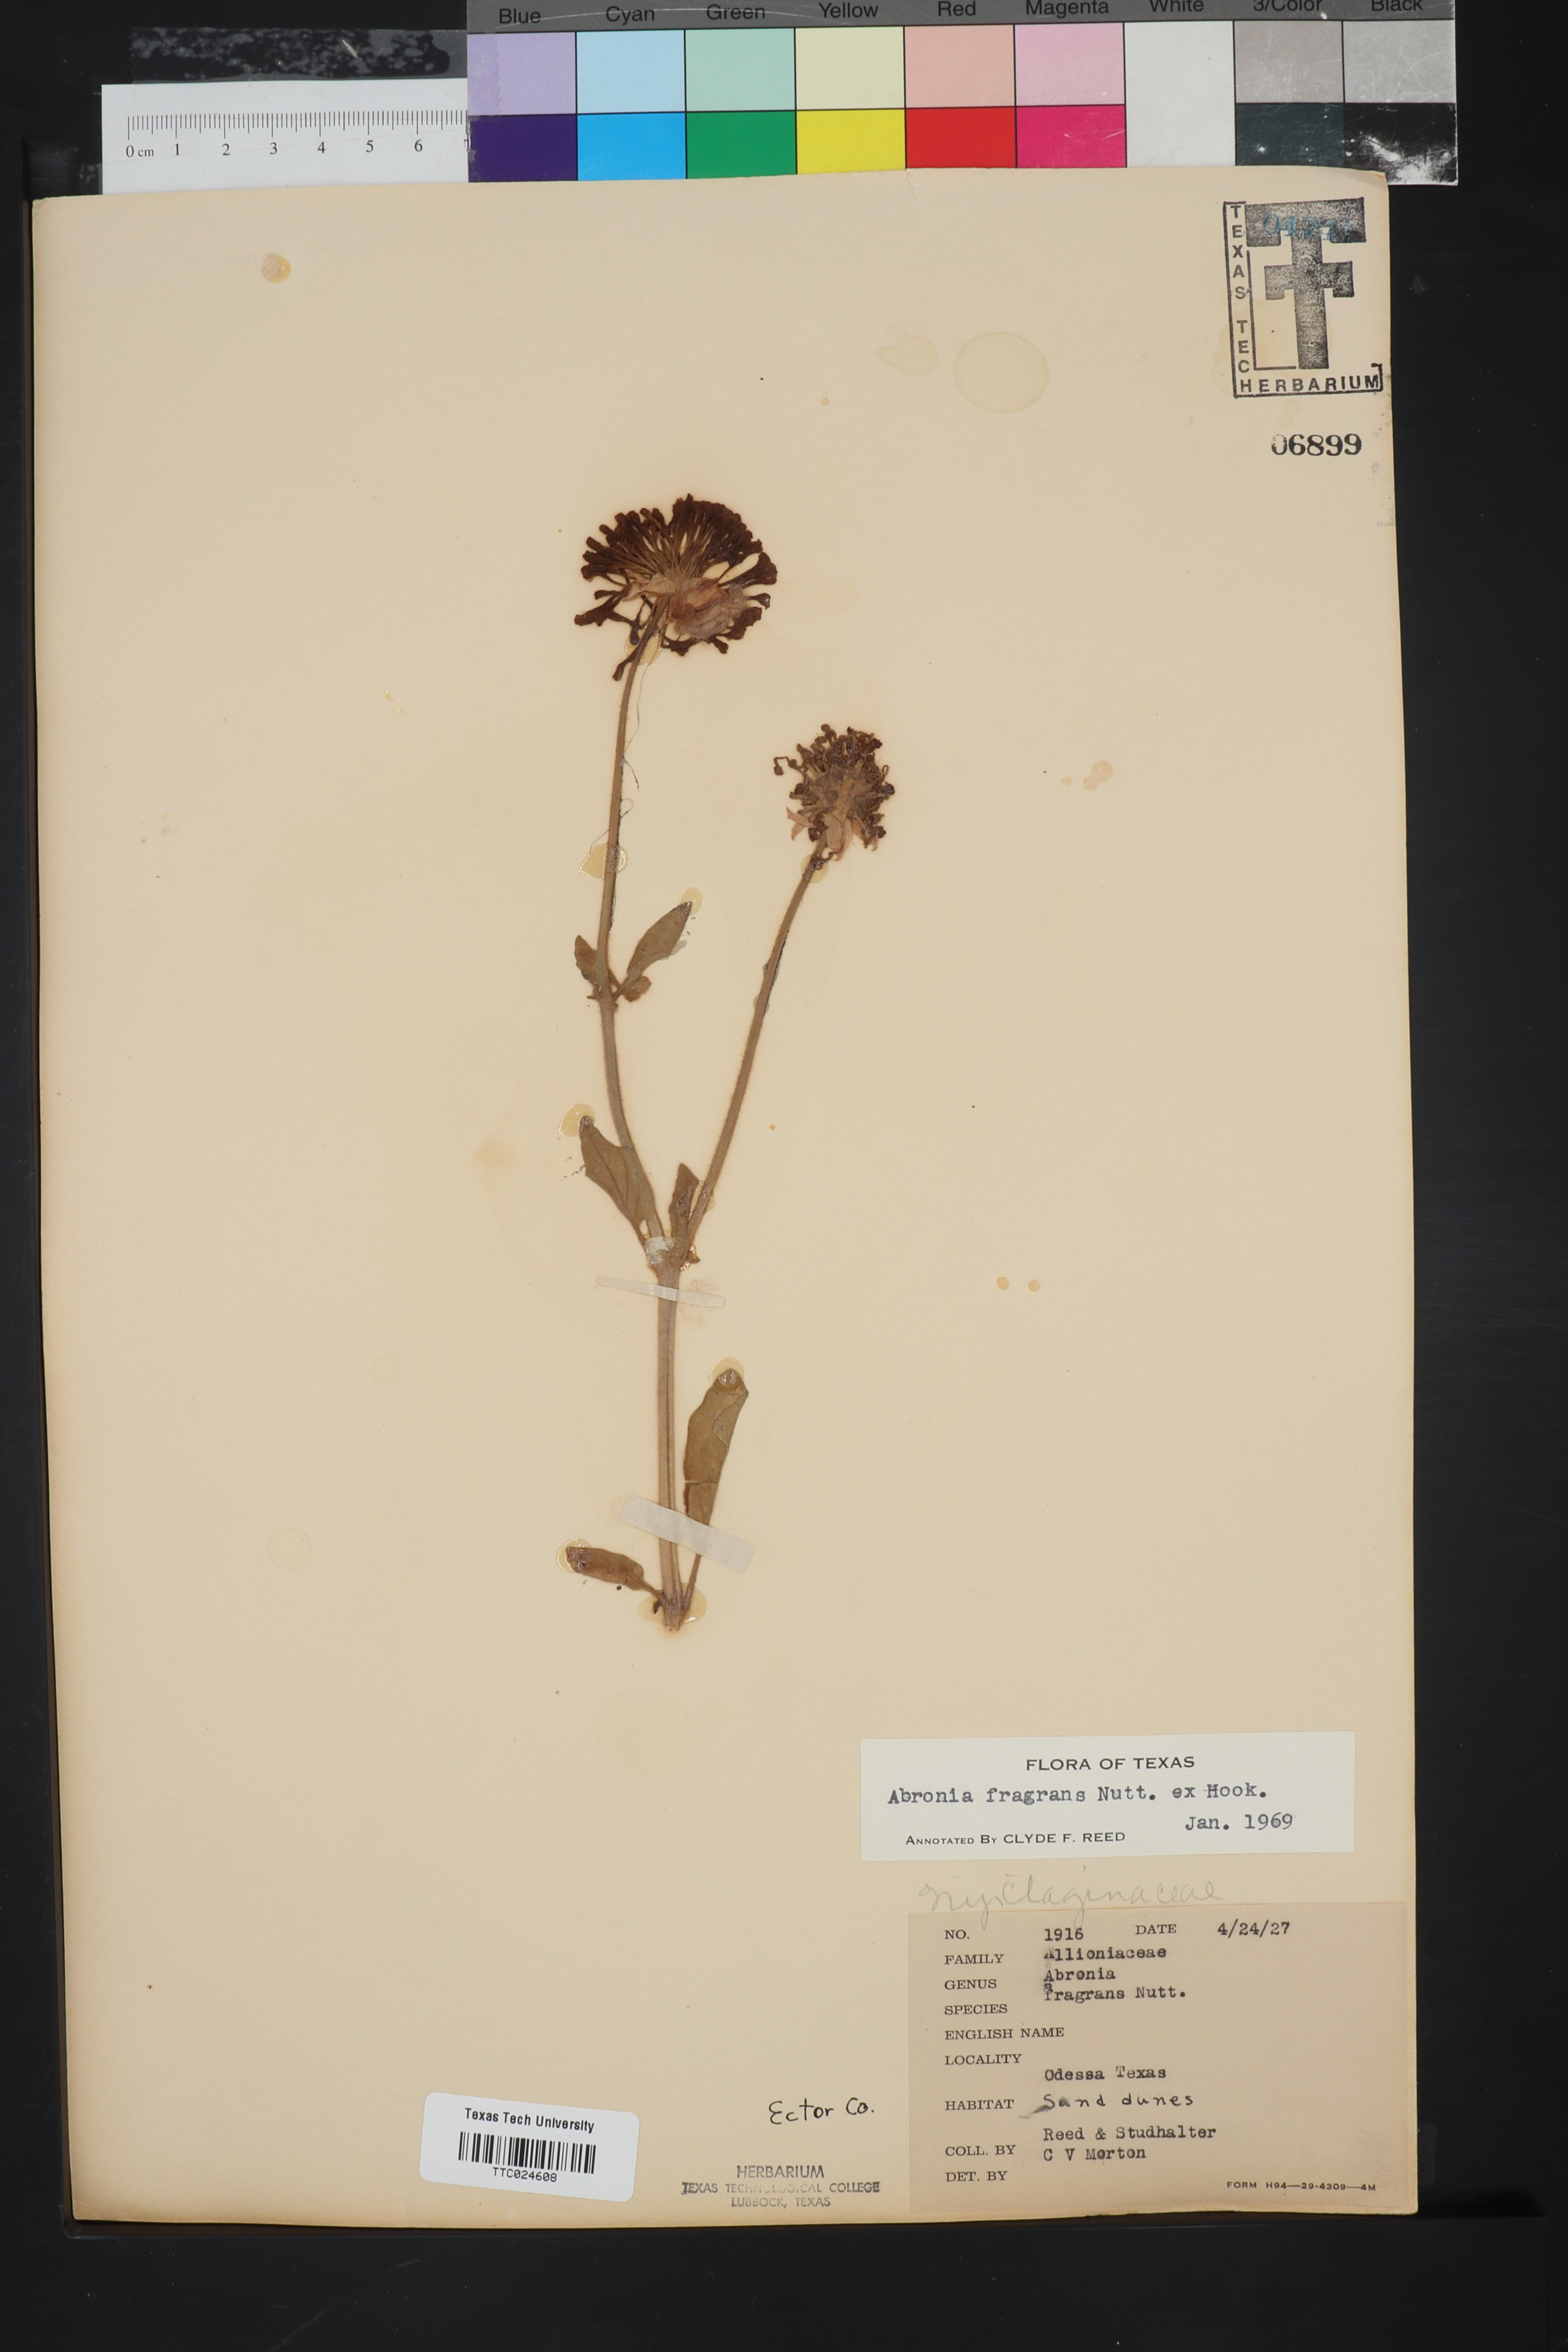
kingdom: Plantae
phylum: Tracheophyta
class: Magnoliopsida
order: Caryophyllales
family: Nyctaginaceae
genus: Abronia
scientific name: Abronia fragrans
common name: Fragrant sand-verbena
